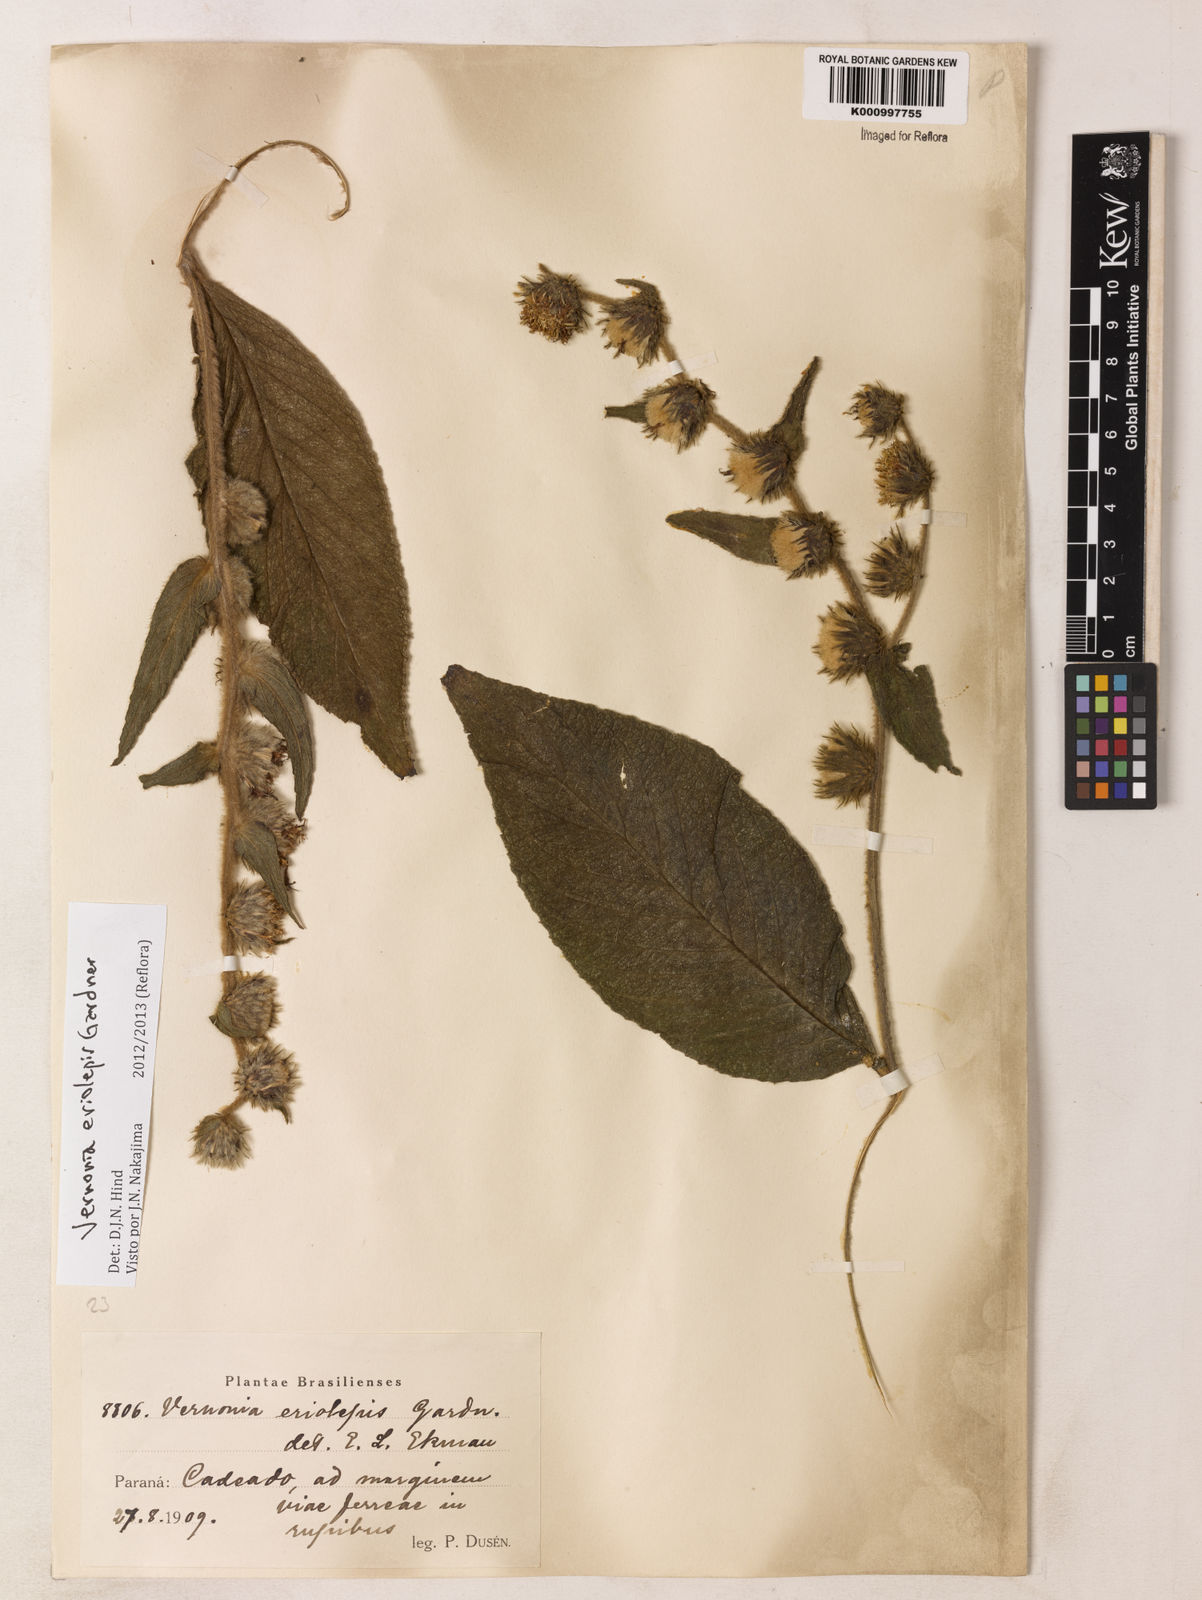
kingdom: Plantae
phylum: Tracheophyta
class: Magnoliopsida
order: Asterales
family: Asteraceae
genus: Lepidaploa
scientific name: Lepidaploa eriolepis
